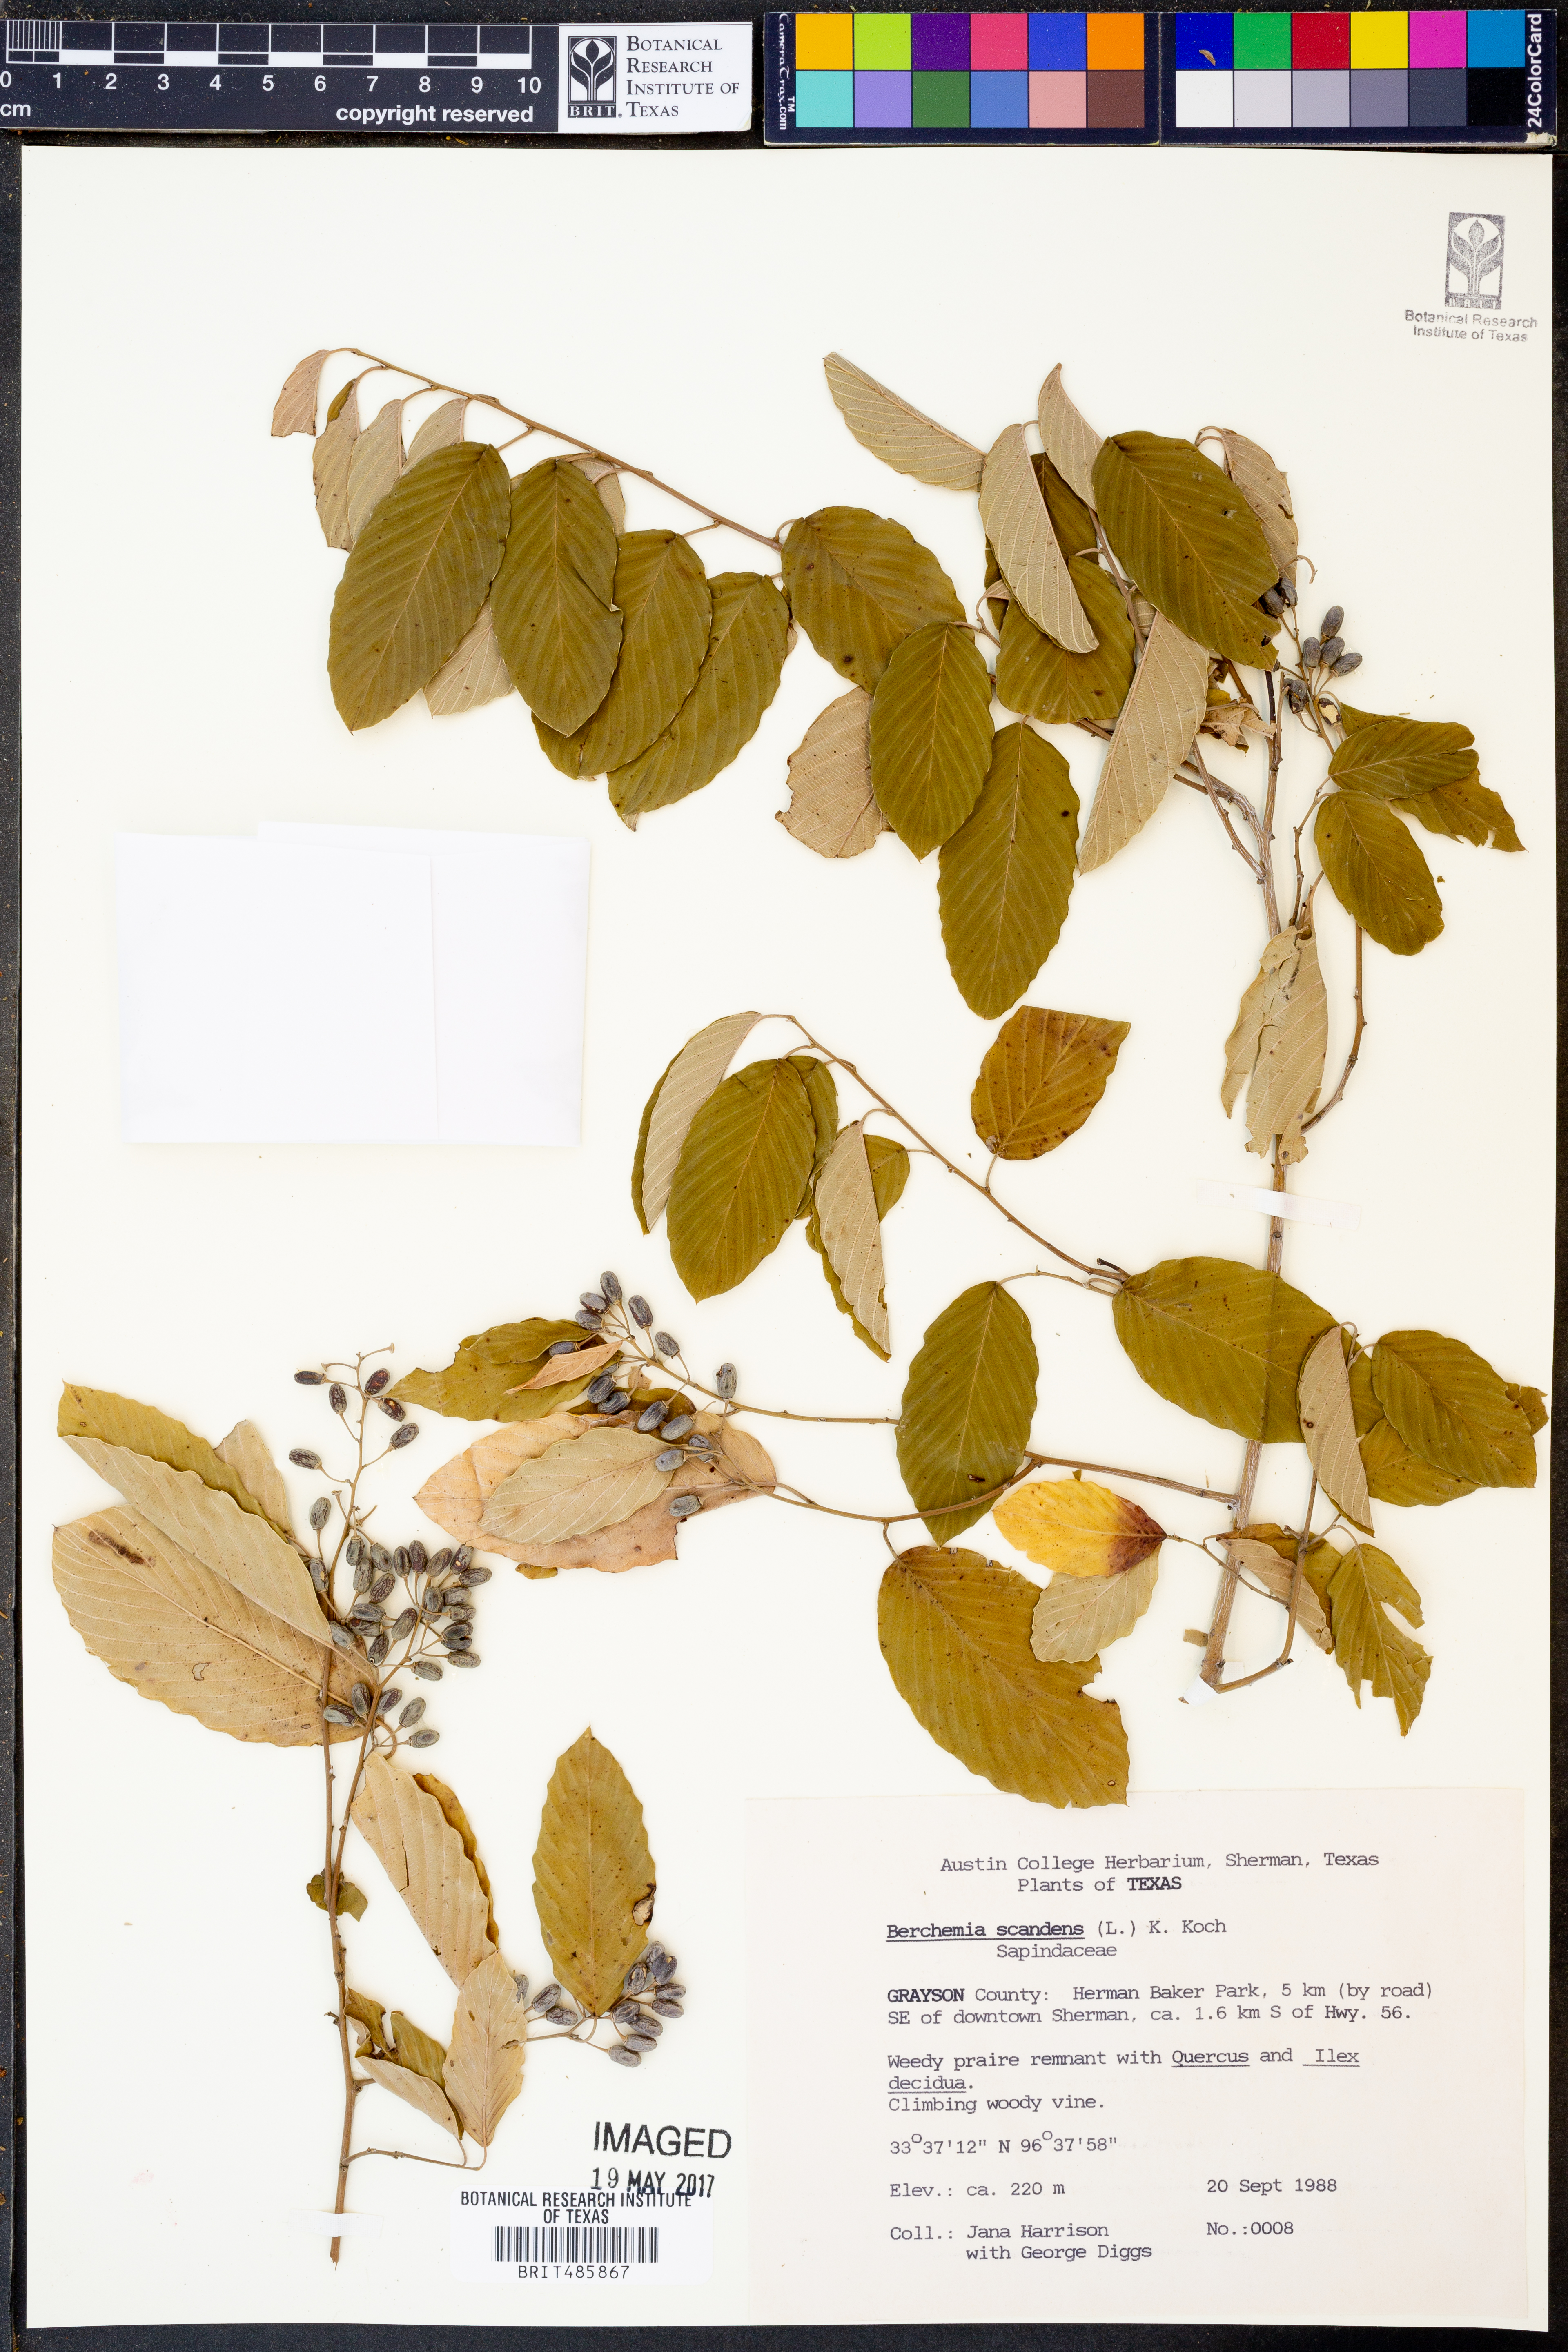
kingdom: Plantae
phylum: Tracheophyta
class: Magnoliopsida
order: Rosales
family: Rhamnaceae
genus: Berchemia
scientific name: Berchemia scandens
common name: Supplejack
